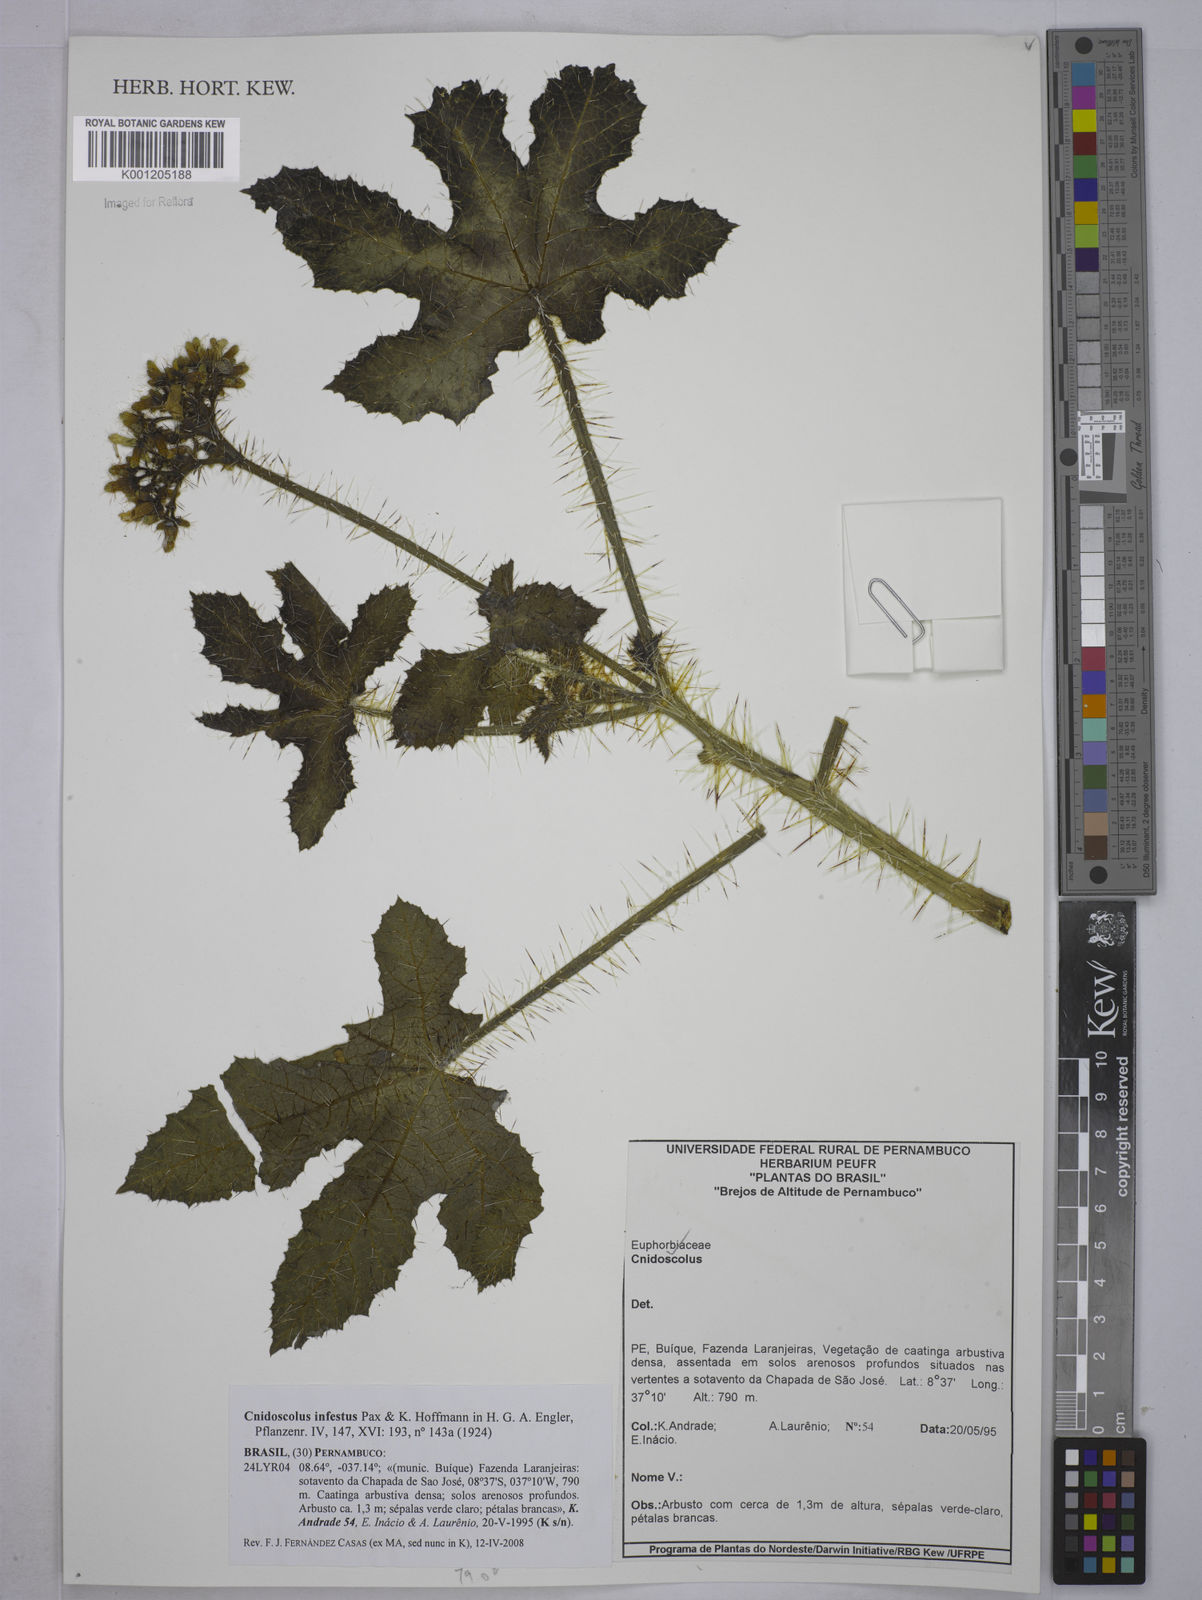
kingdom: Plantae
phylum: Tracheophyta
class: Magnoliopsida
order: Malpighiales
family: Euphorbiaceae
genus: Cnidoscolus
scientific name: Cnidoscolus infestus
